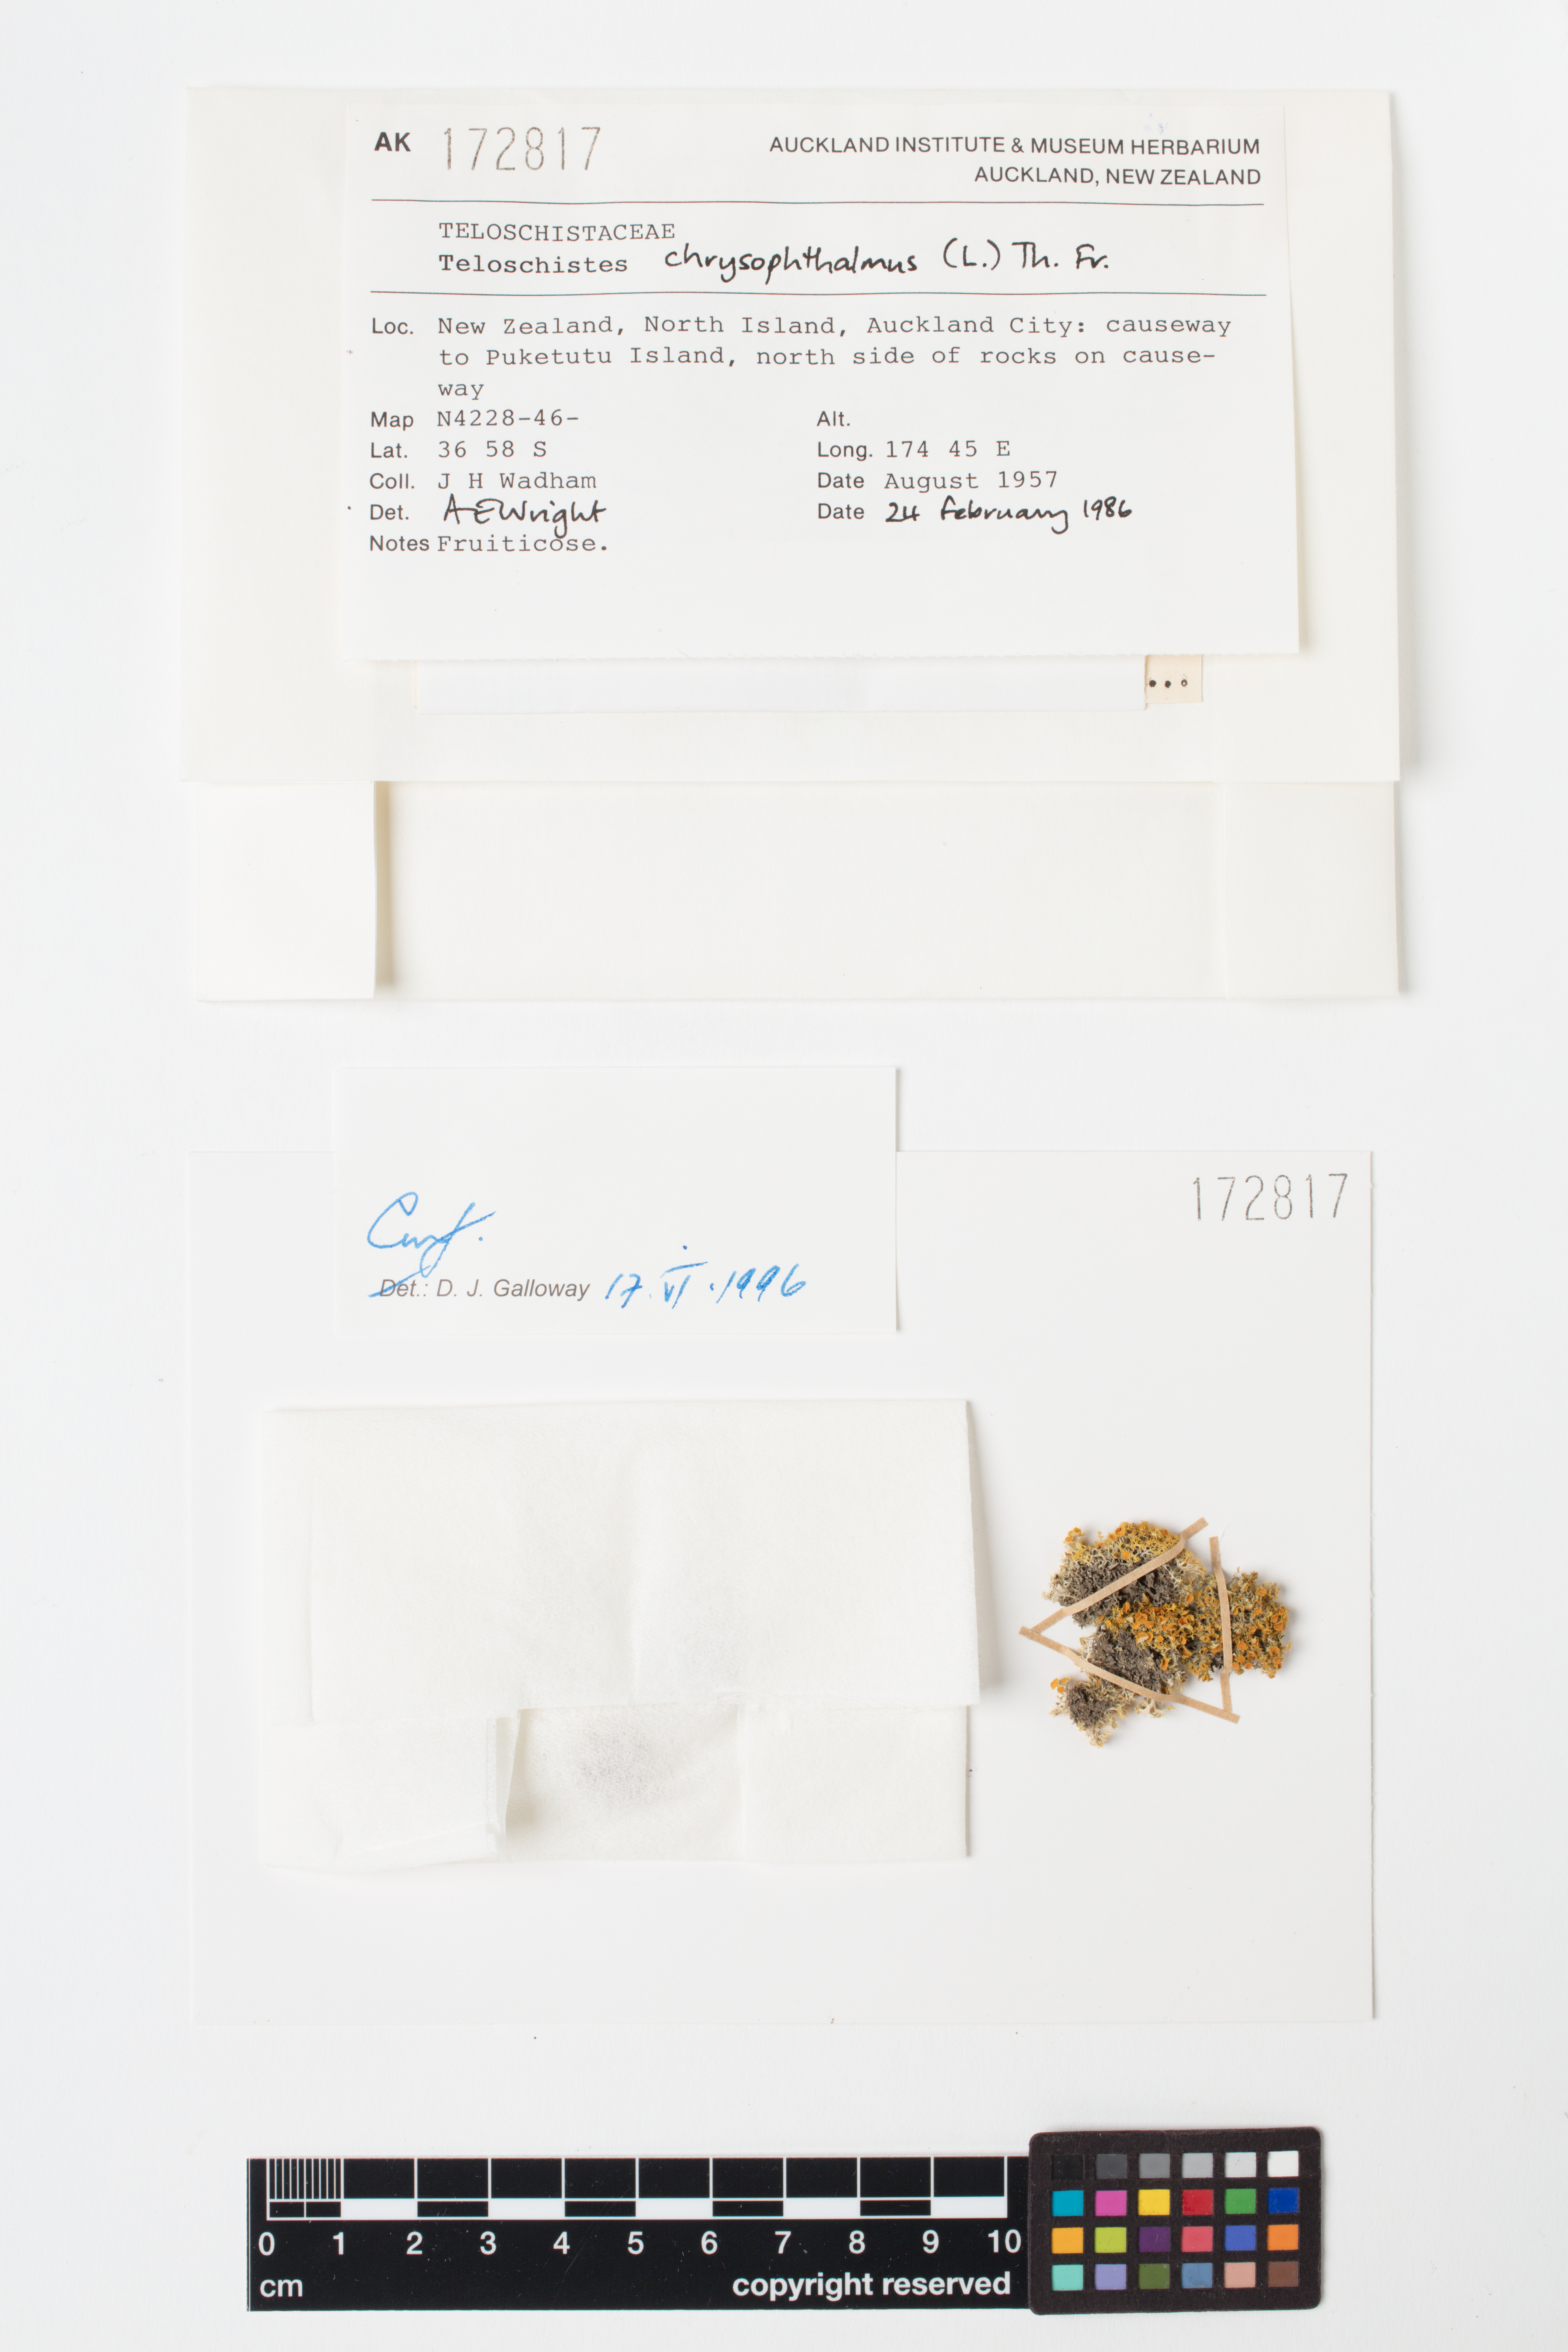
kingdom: Fungi
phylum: Ascomycota
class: Lecanoromycetes
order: Teloschistales
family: Teloschistaceae
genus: Niorma
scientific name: Niorma chrysophthalma
